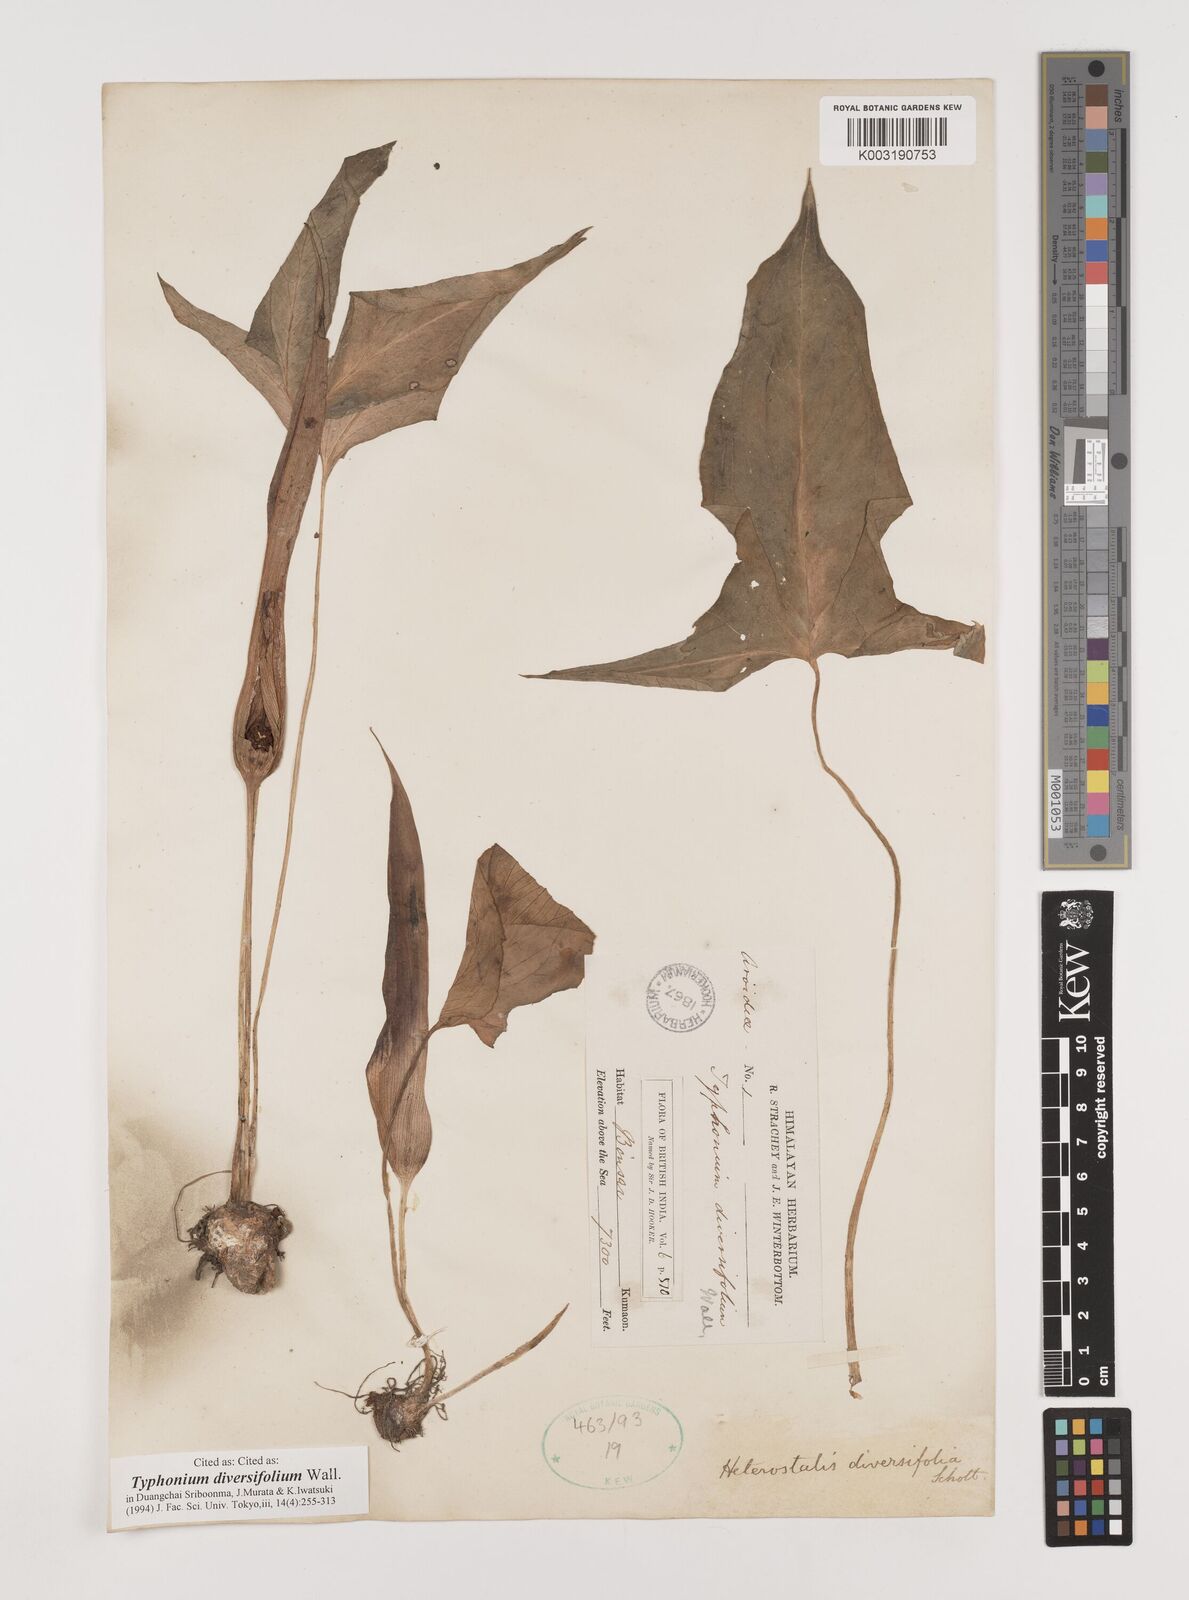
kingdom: Plantae
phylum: Tracheophyta
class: Liliopsida
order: Alismatales
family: Araceae
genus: Sauromatum
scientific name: Sauromatum diversifolium
